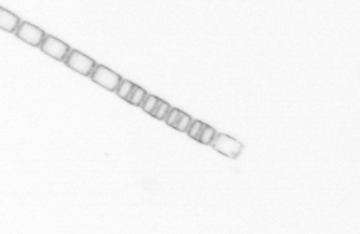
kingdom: Chromista
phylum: Ochrophyta
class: Bacillariophyceae
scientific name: Bacillariophyceae
